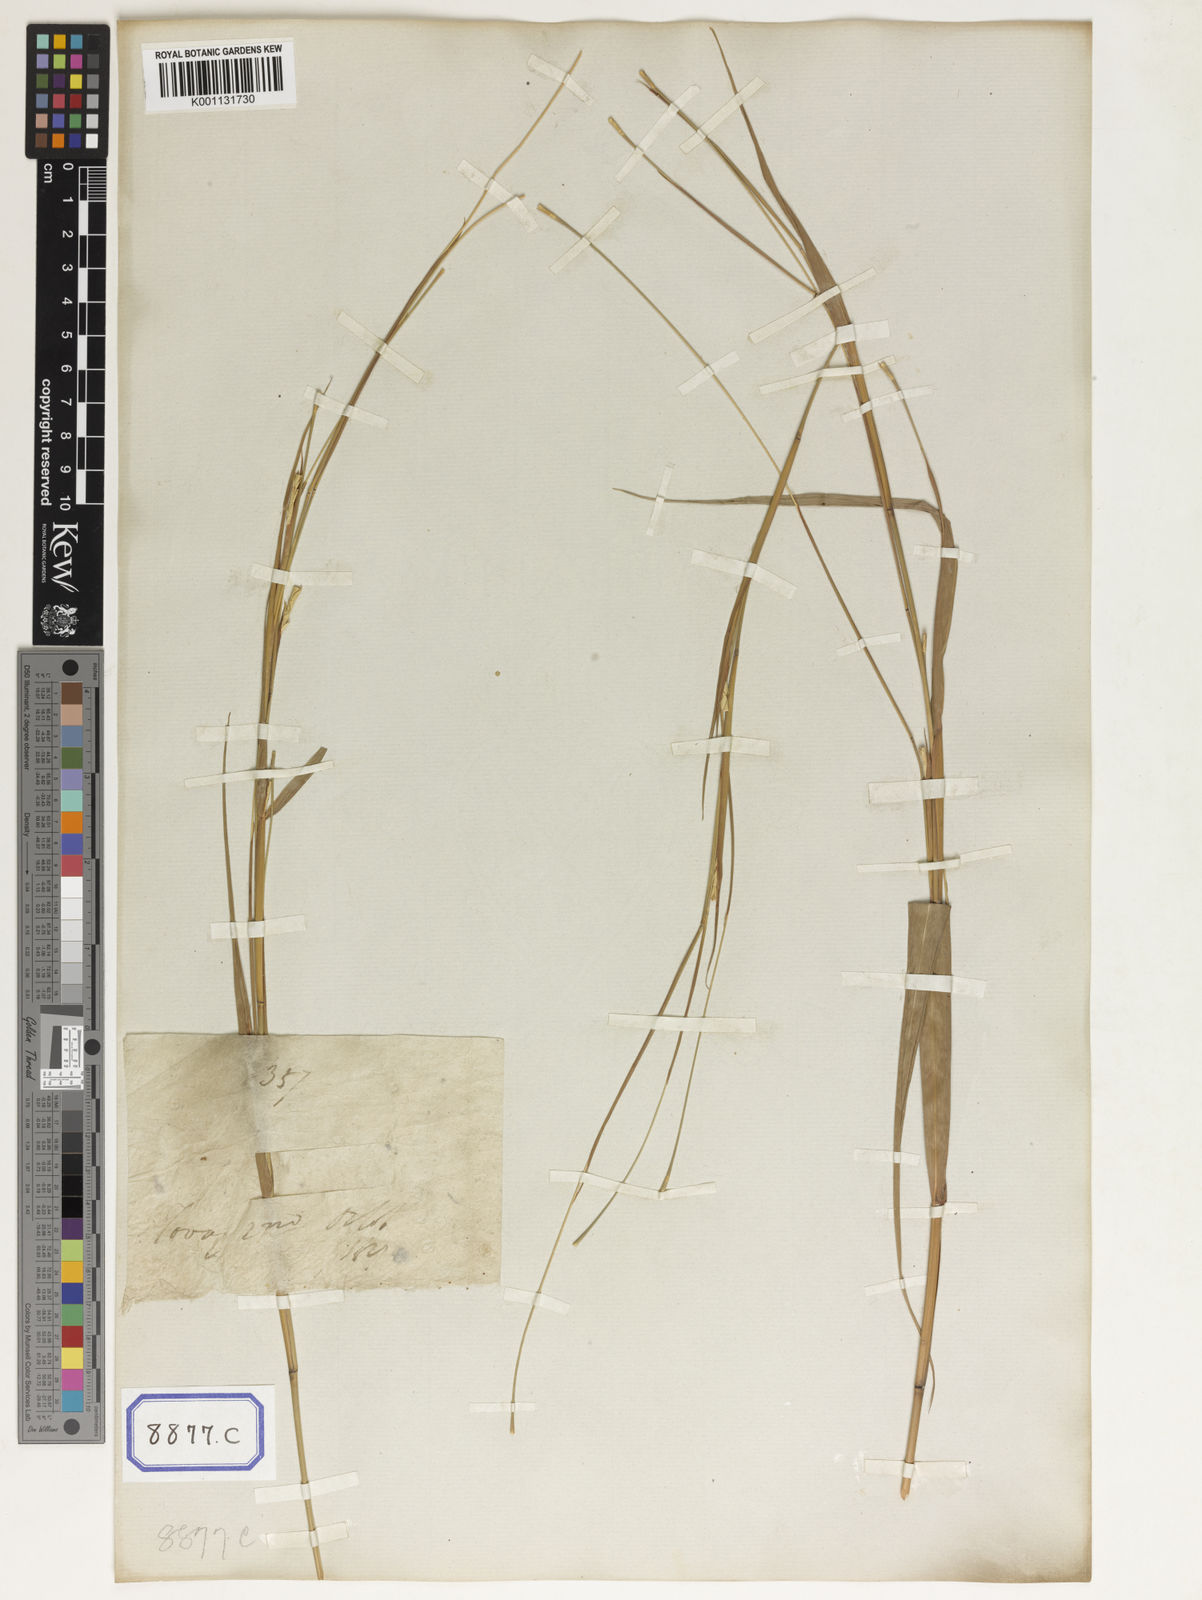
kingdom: Plantae
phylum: Tracheophyta
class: Liliopsida
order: Poales
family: Poaceae
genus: Rottboellia
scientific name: Rottboellia
